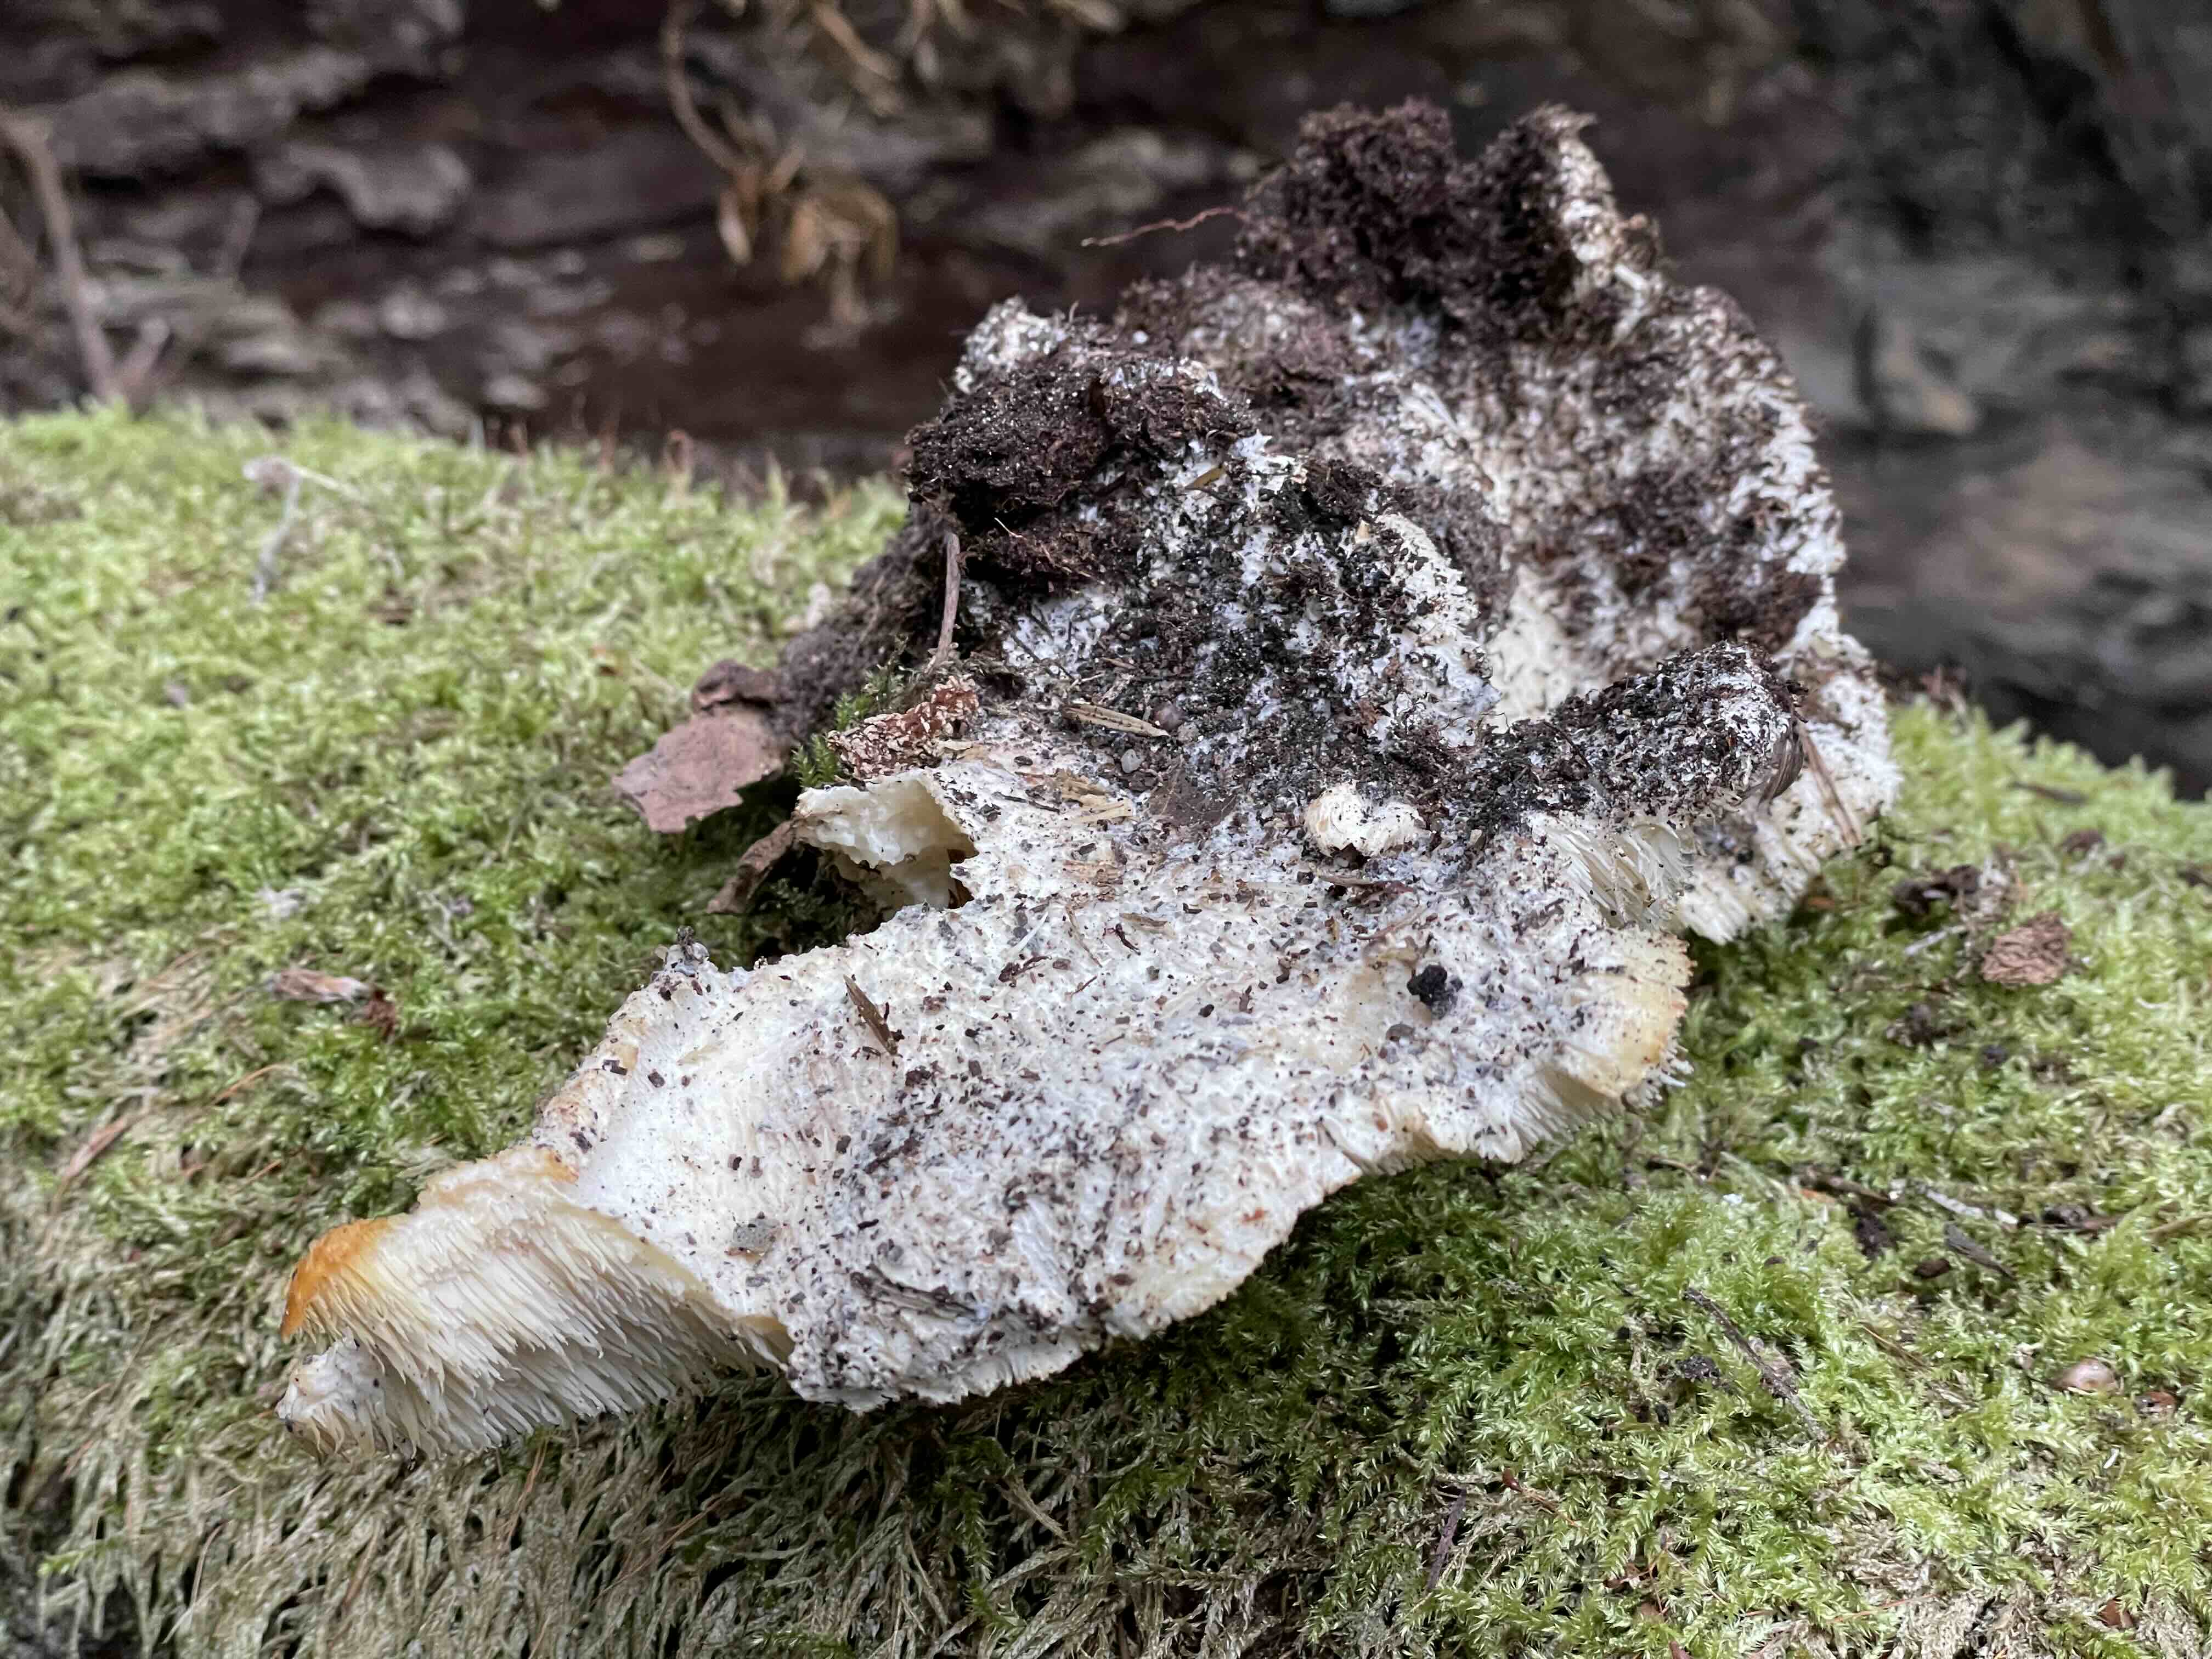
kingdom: Fungi
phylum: Basidiomycota
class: Agaricomycetes
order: Russulales
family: Hericiaceae
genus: Hericium
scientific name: Hericium cirrhatum
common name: børstepigsvamp
